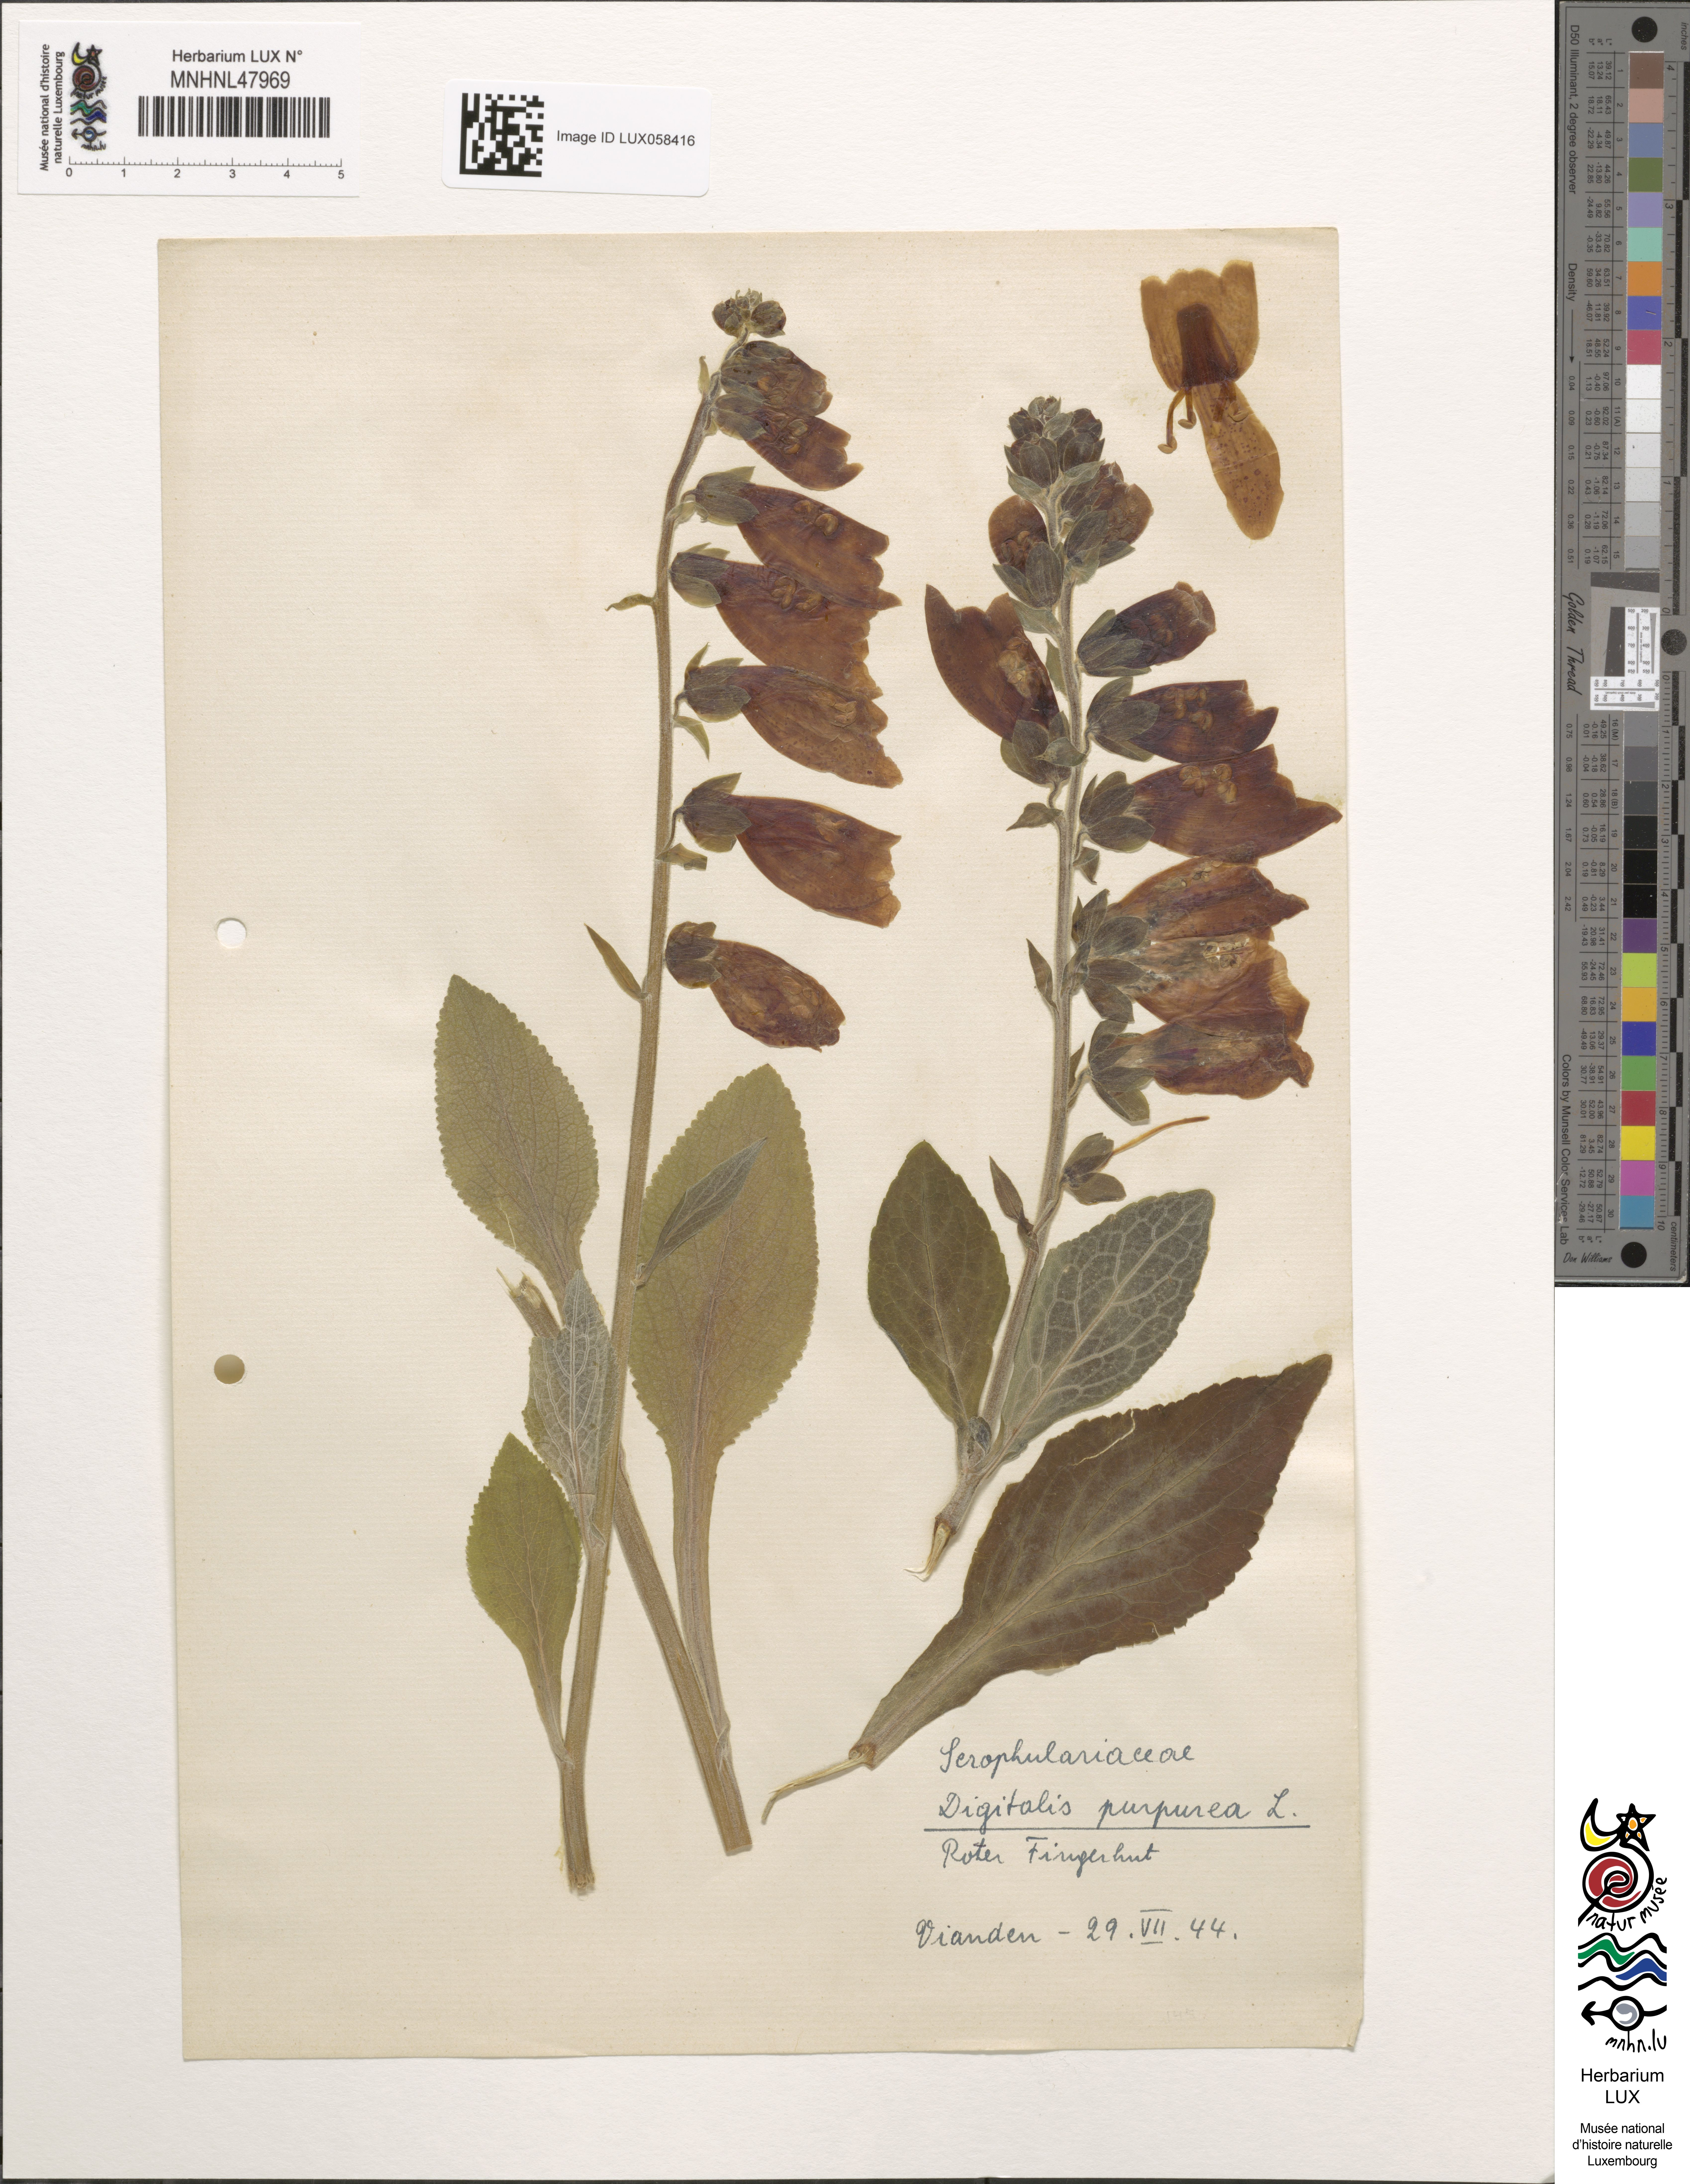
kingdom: Plantae
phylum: Tracheophyta
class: Magnoliopsida
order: Lamiales
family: Plantaginaceae
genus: Digitalis
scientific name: Digitalis purpurea
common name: Foxglove
